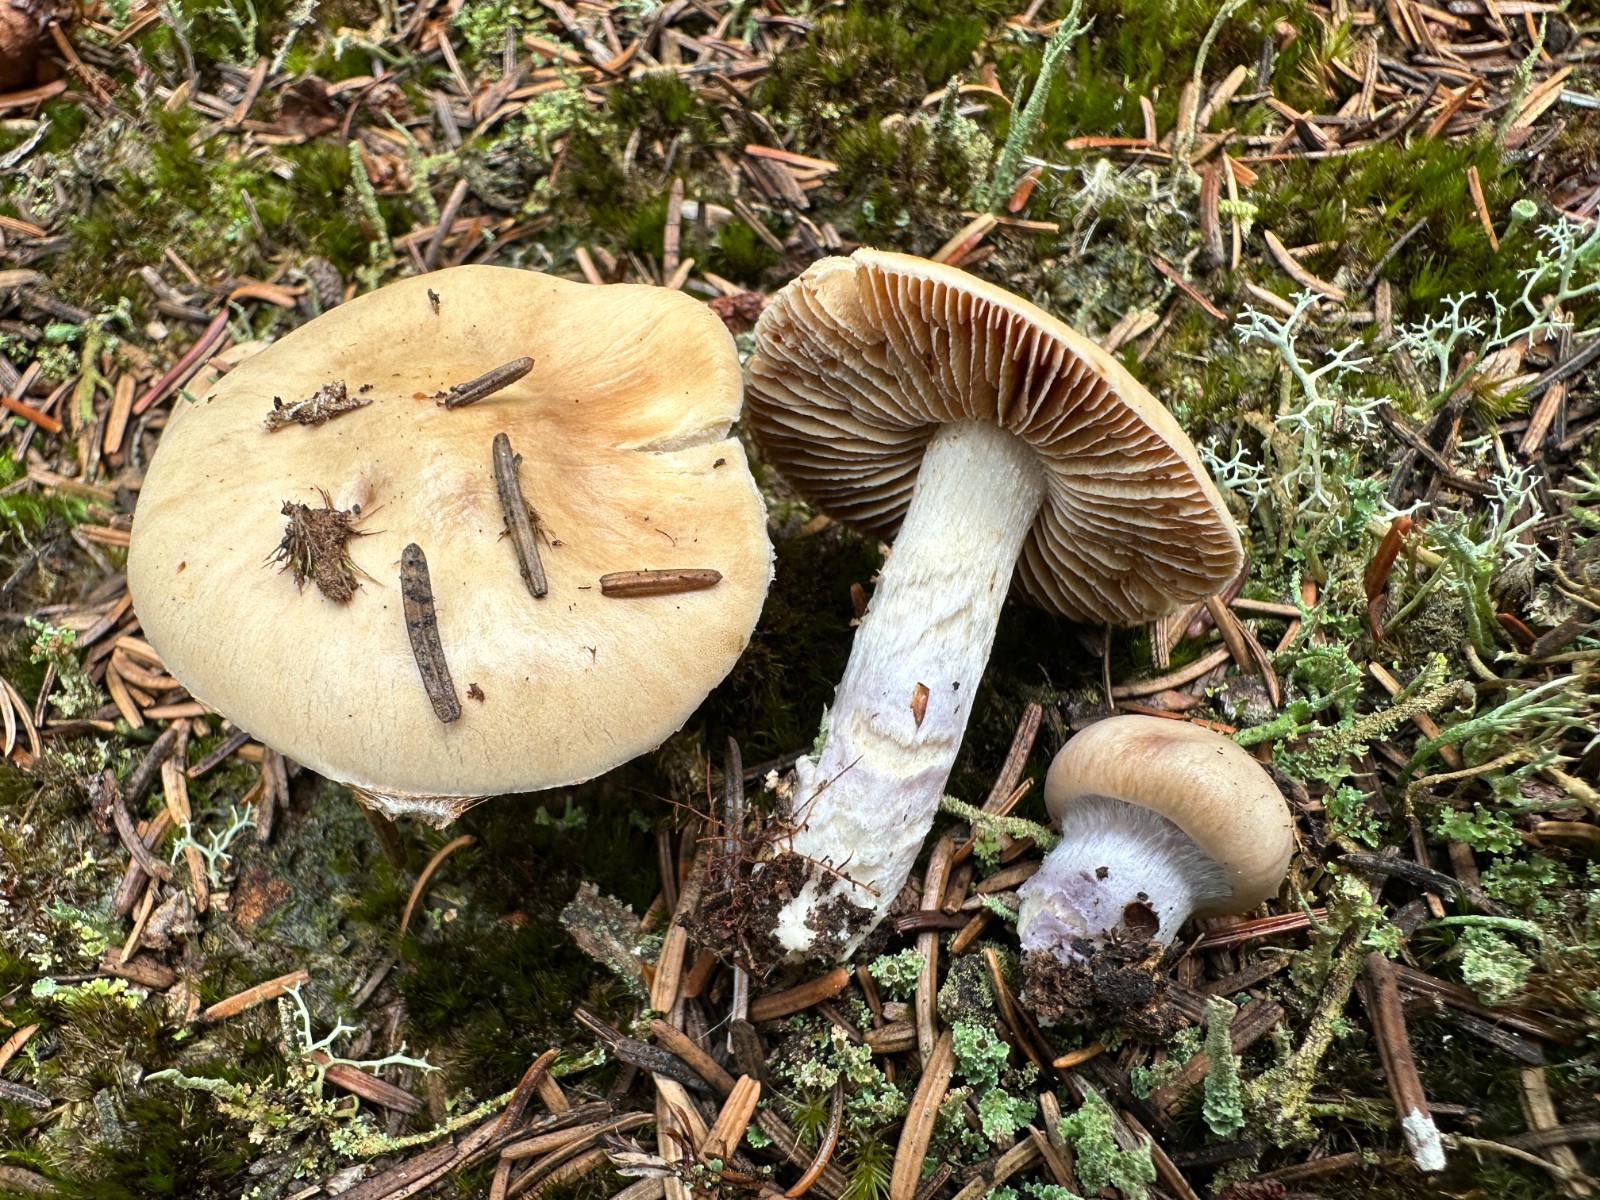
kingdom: Fungi
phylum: Basidiomycota
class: Agaricomycetes
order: Agaricales
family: Cortinariaceae
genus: Cortinarius
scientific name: Cortinarius stillatitius
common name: honningduftende slørhat
